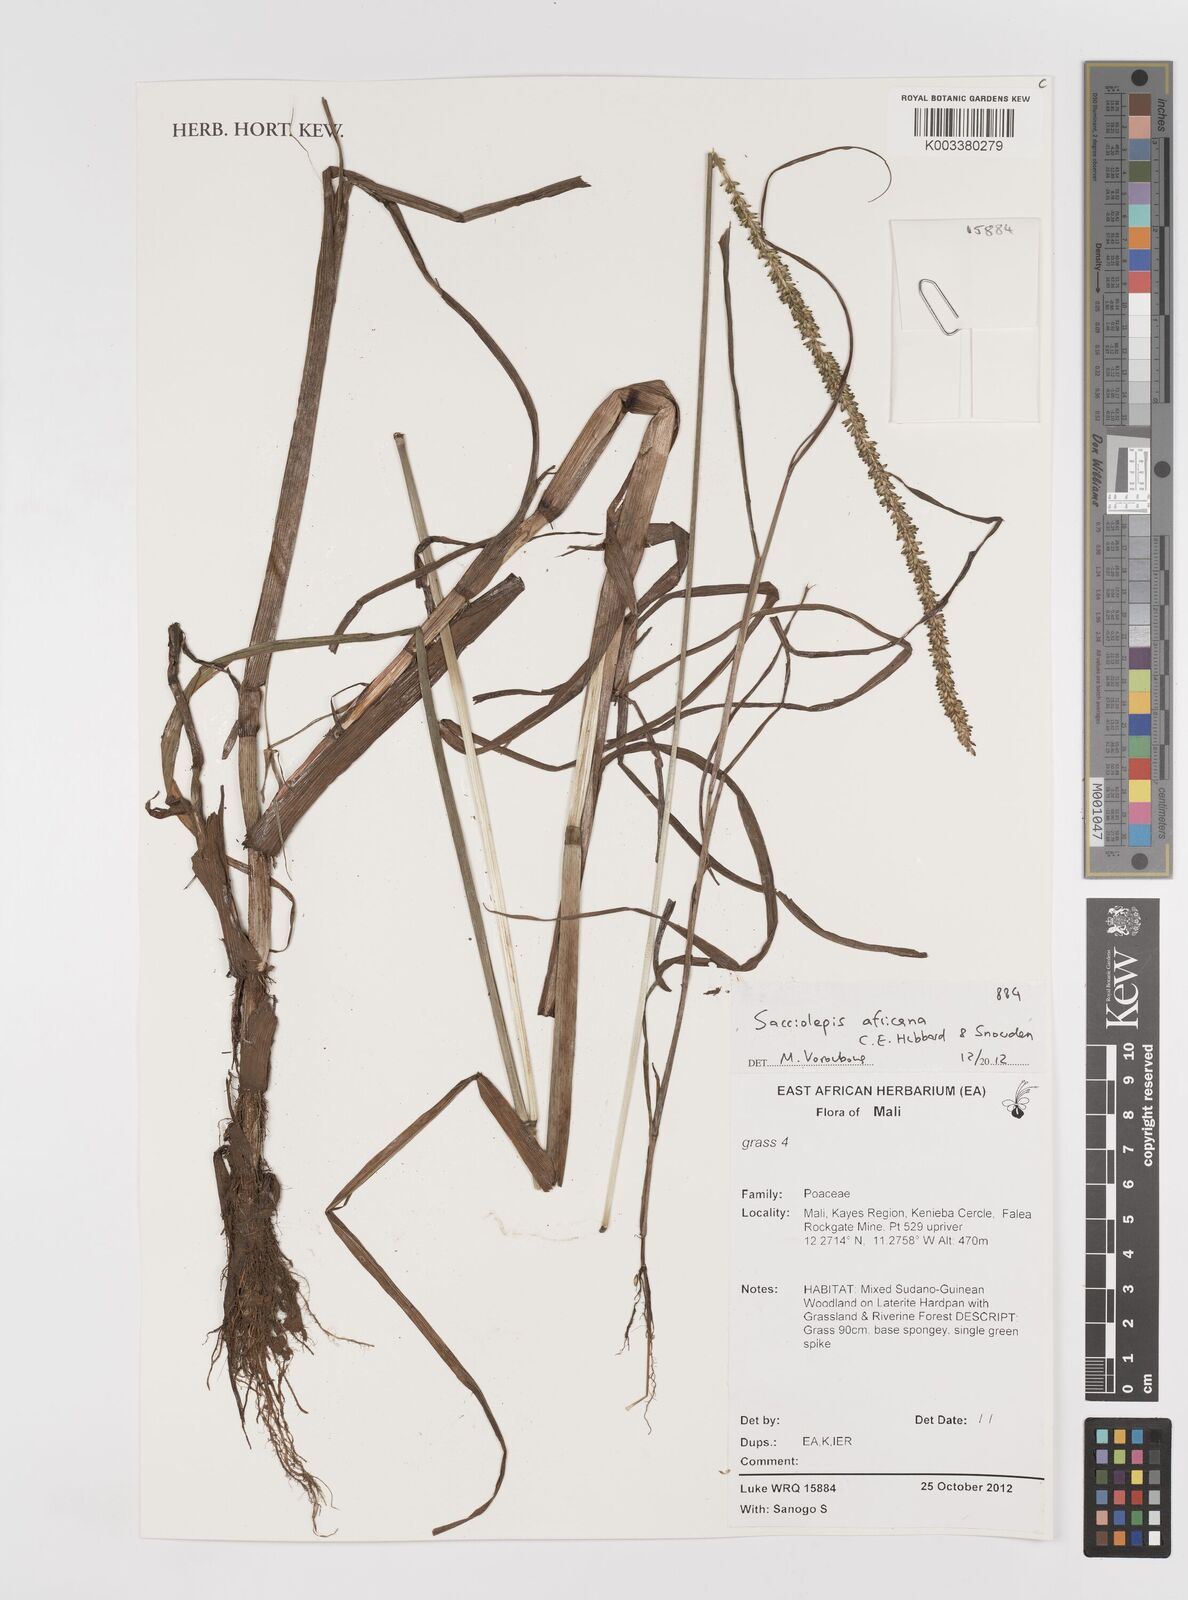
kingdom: Plantae
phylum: Tracheophyta
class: Liliopsida
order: Poales
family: Poaceae
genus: Sacciolepis
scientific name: Sacciolepis africana
